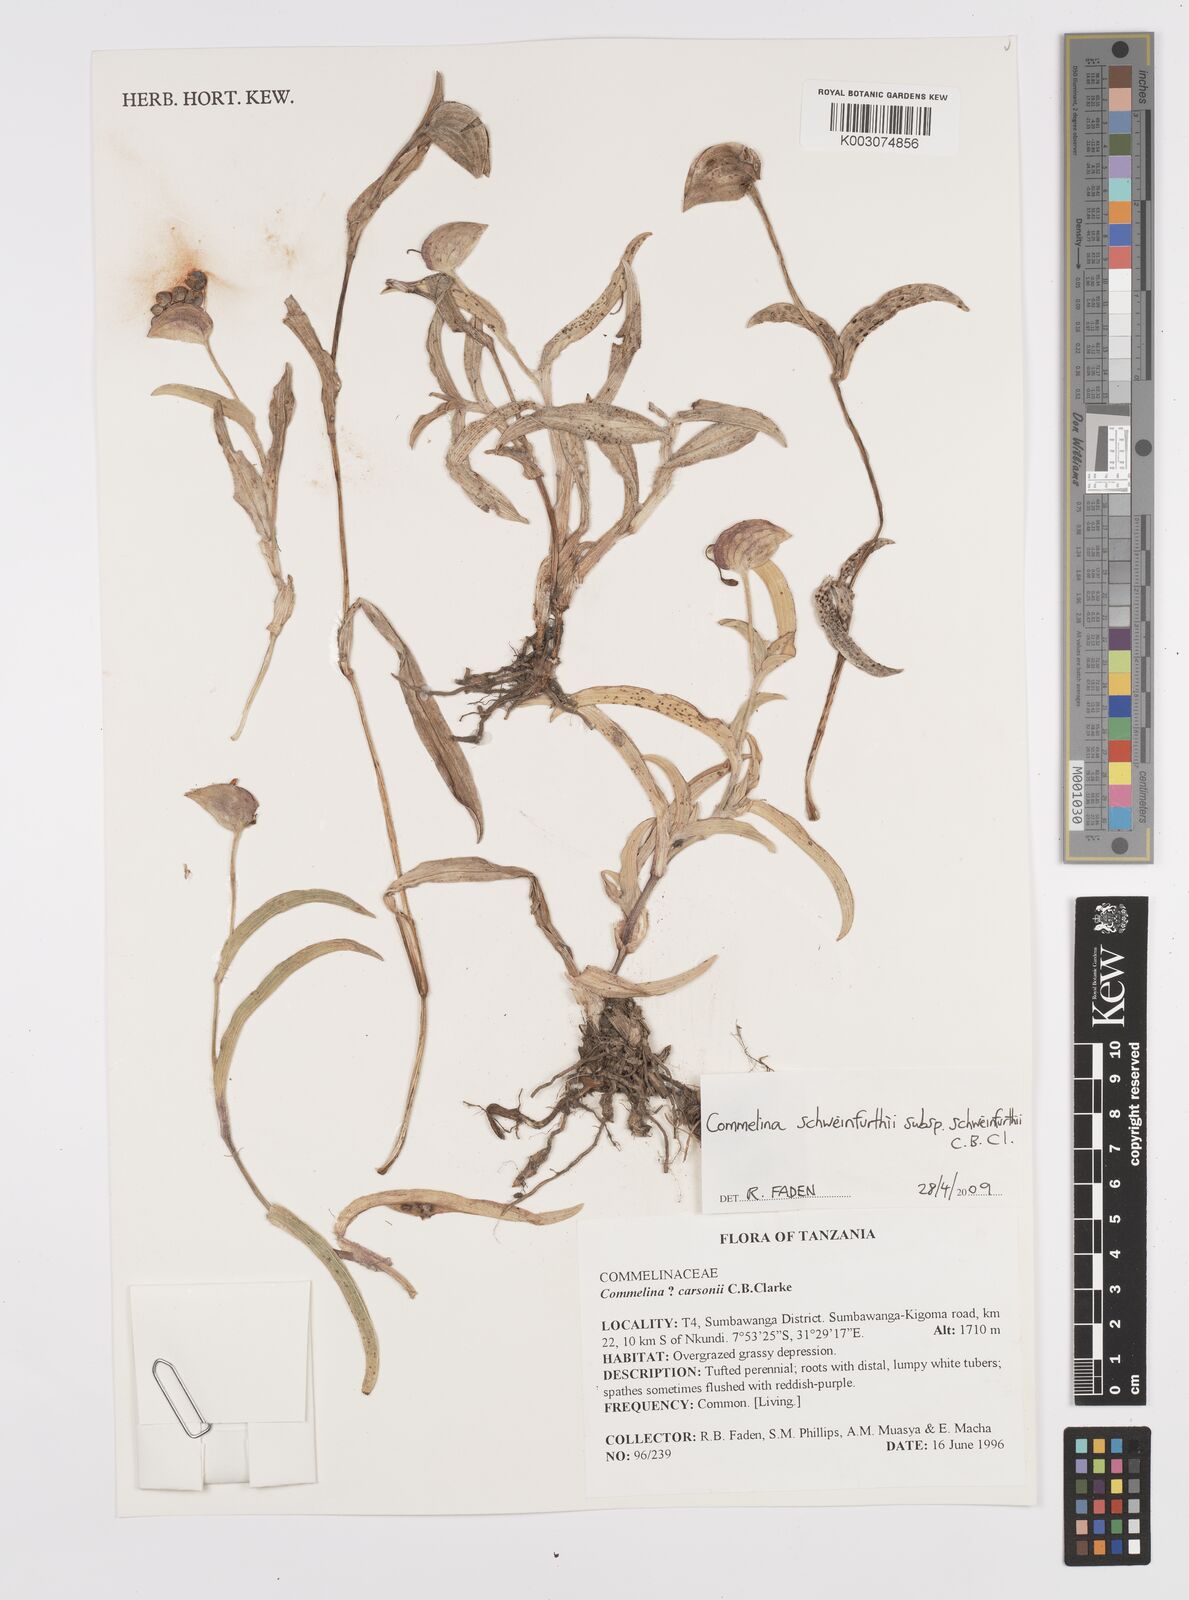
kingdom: Plantae
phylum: Tracheophyta
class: Liliopsida
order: Commelinales
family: Commelinaceae
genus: Commelina
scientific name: Commelina schweinfurthii
